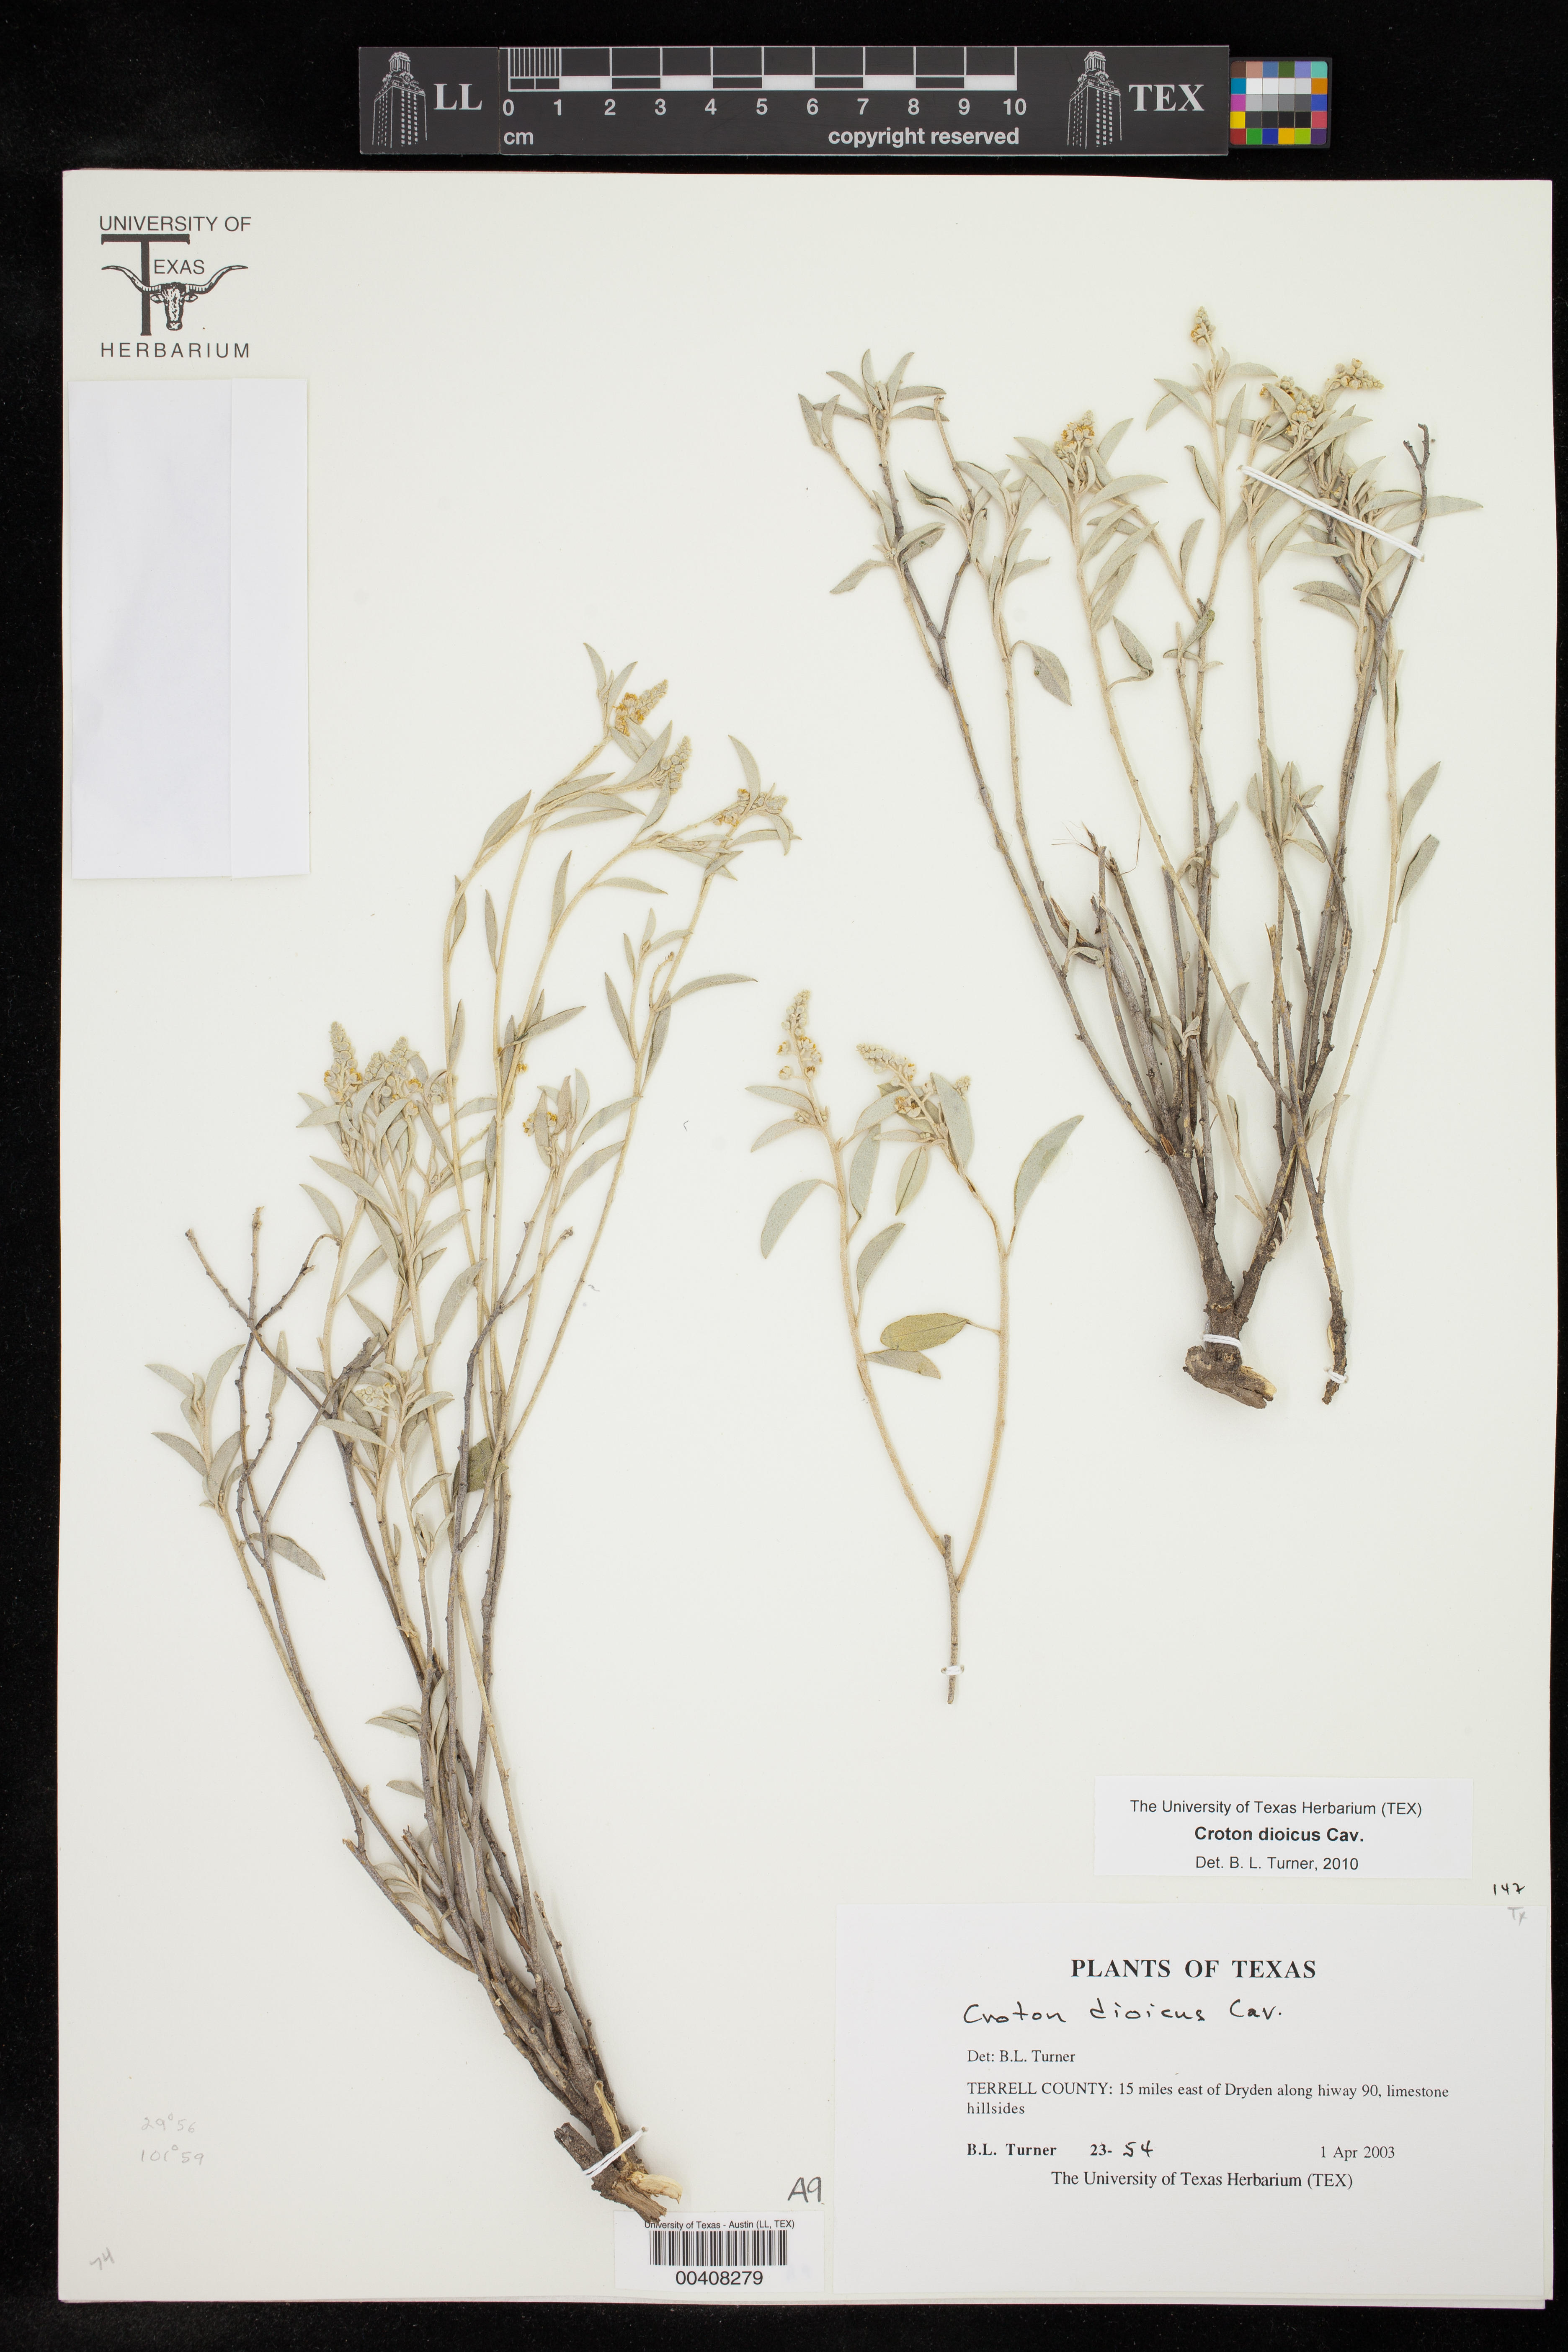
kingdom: Plantae
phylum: Tracheophyta
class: Magnoliopsida
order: Malpighiales
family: Euphorbiaceae
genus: Croton
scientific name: Croton dioicus
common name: Grassland croton
